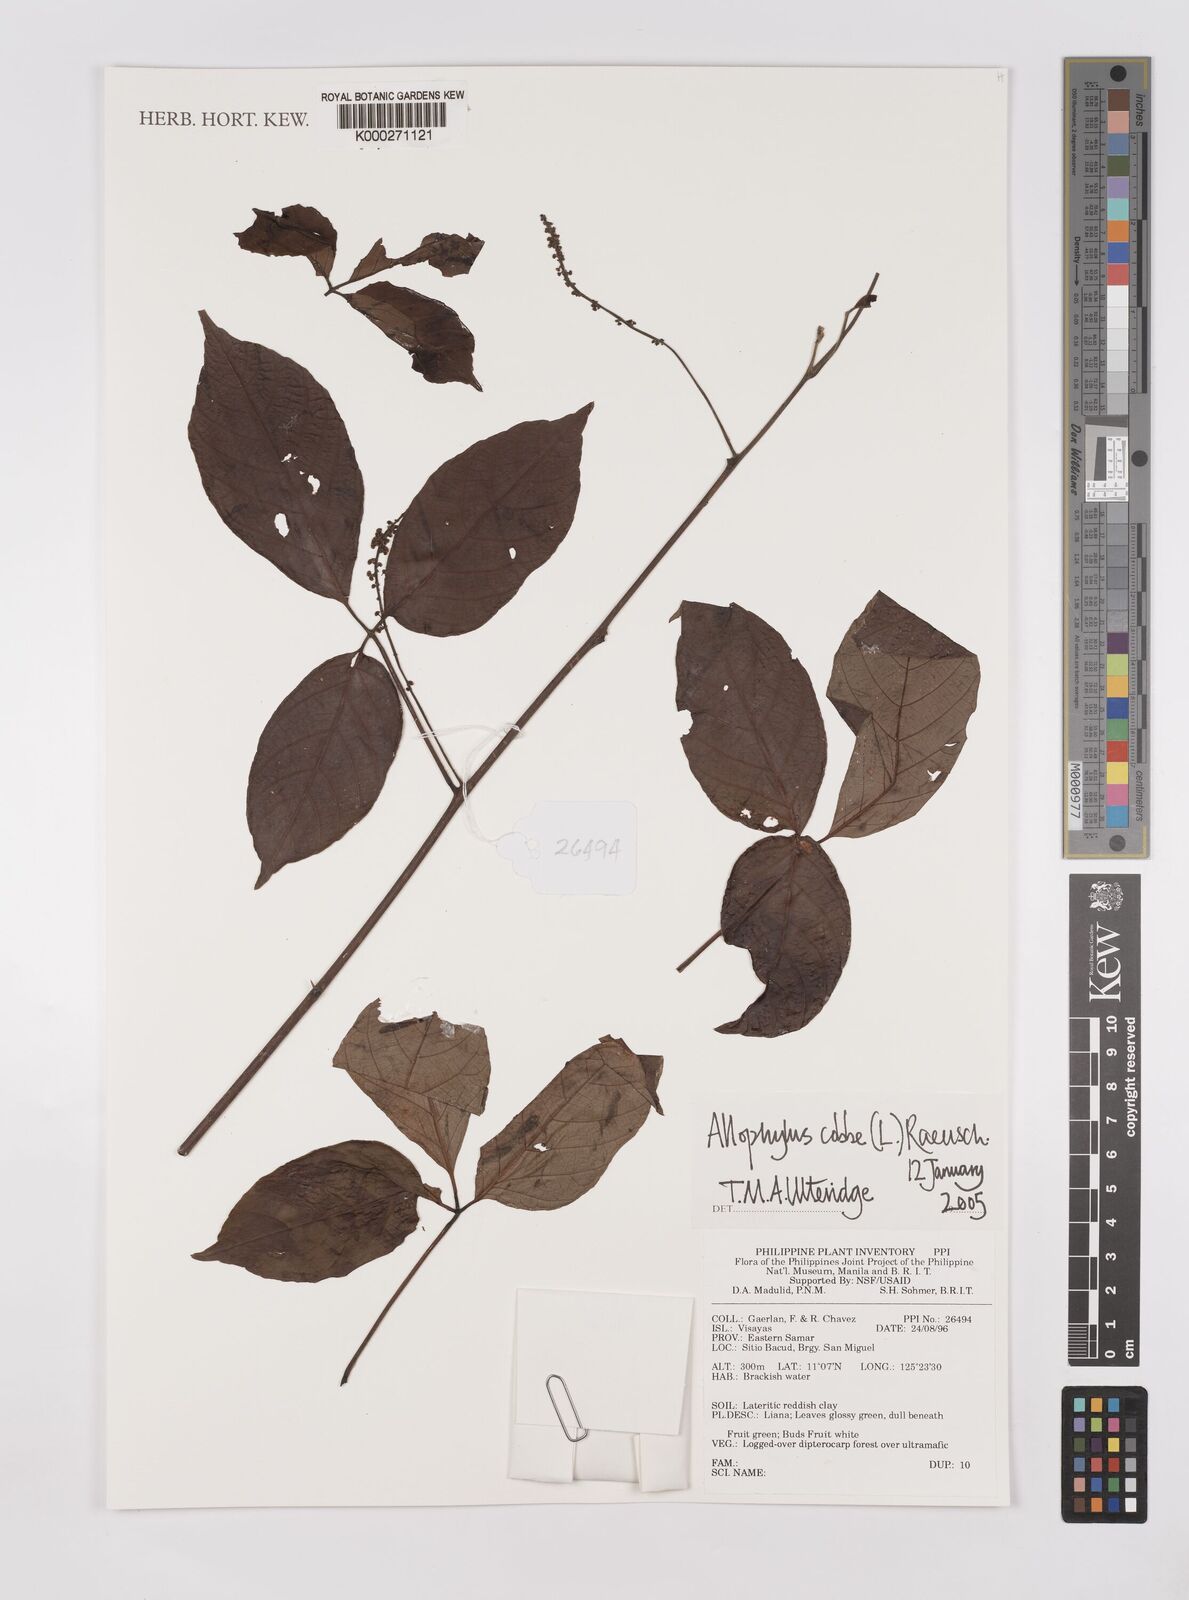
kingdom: Plantae
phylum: Tracheophyta
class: Magnoliopsida
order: Sapindales
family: Sapindaceae
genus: Allophylus
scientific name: Allophylus
